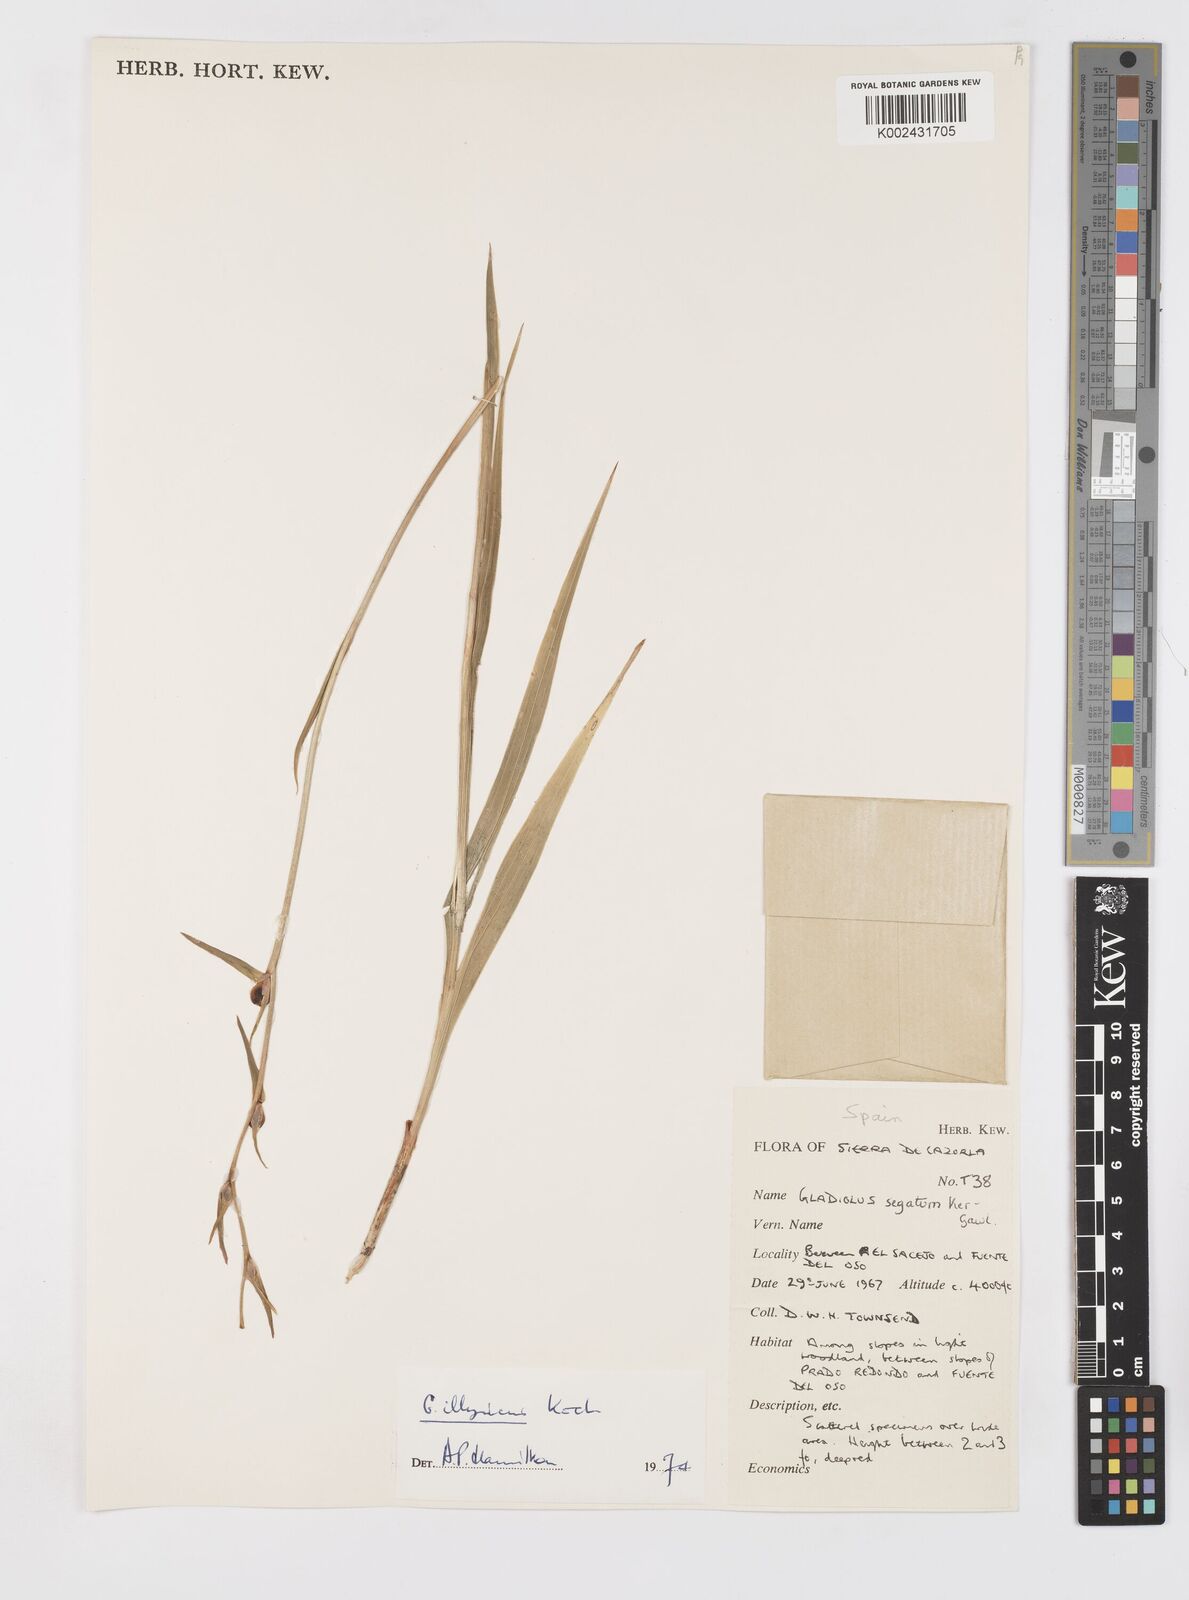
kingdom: Plantae
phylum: Tracheophyta
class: Liliopsida
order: Asparagales
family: Iridaceae
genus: Gladiolus
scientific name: Gladiolus illyricus
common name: Wild gladiolus
